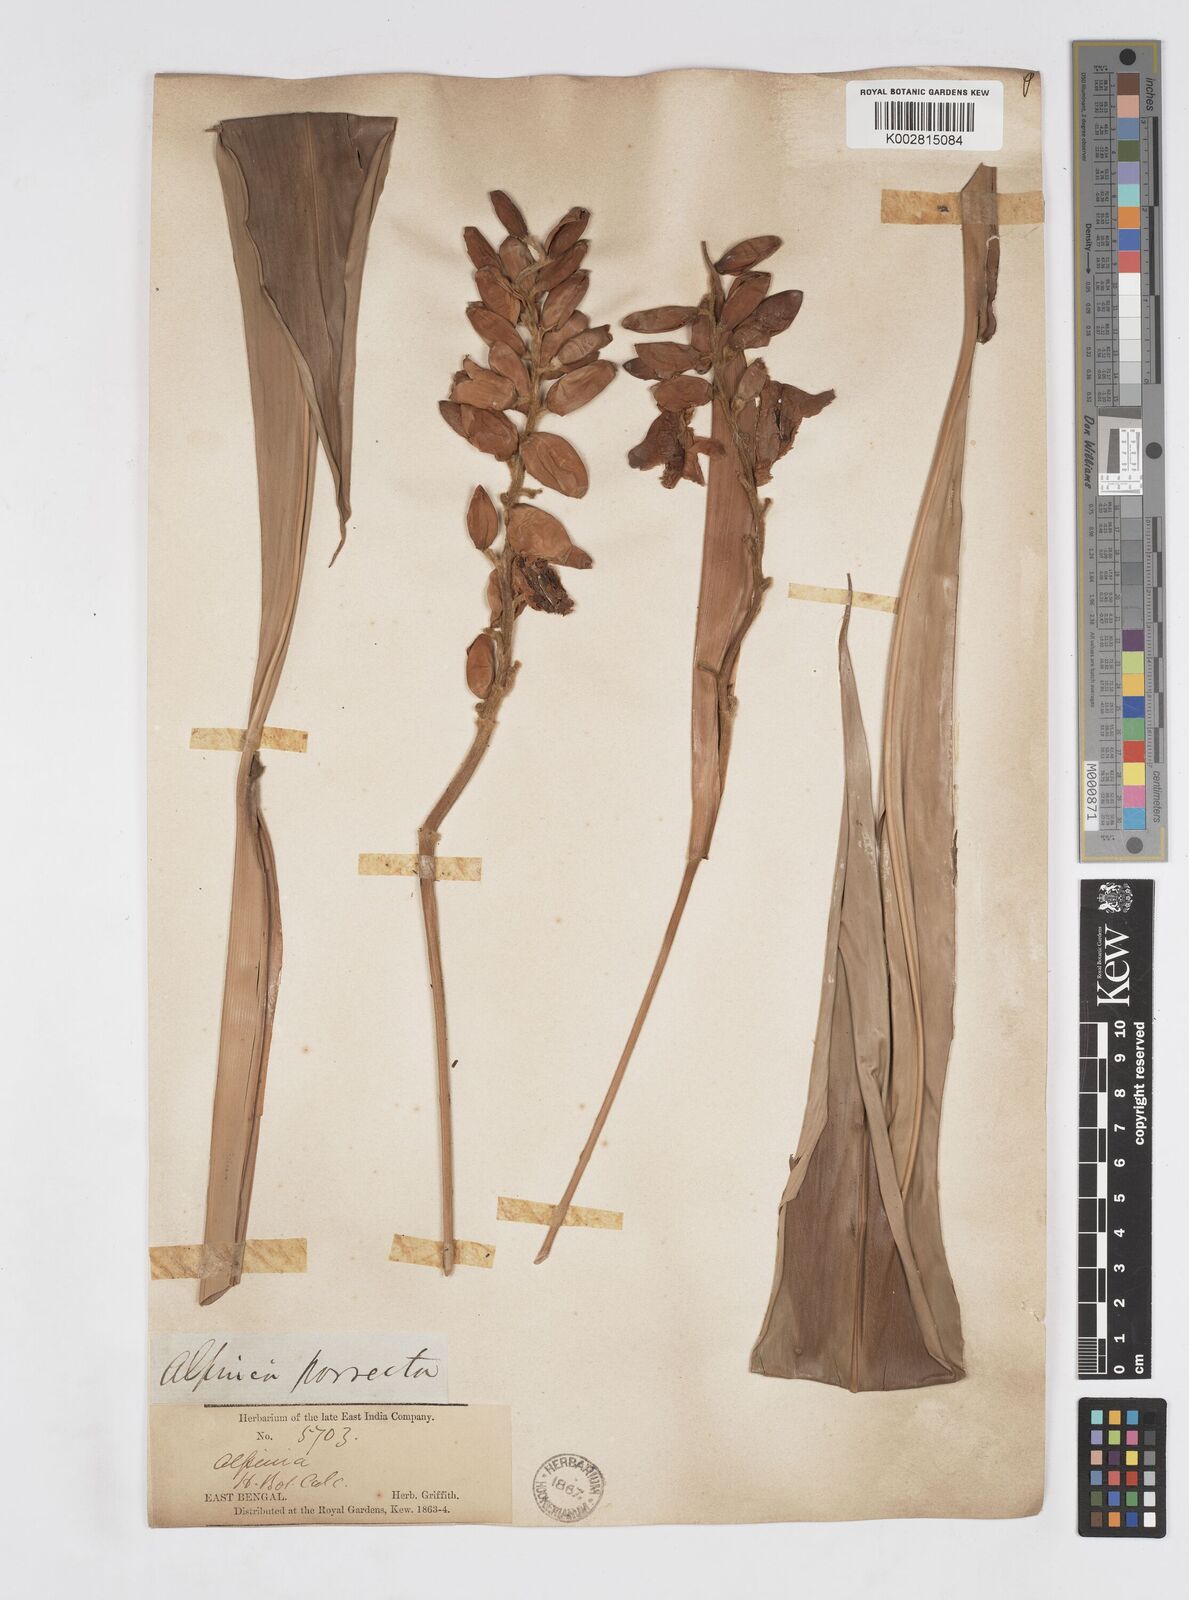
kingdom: Plantae
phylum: Tracheophyta
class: Liliopsida
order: Zingiberales
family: Zingiberaceae
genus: Alpinia
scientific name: Alpinia malaccensis
